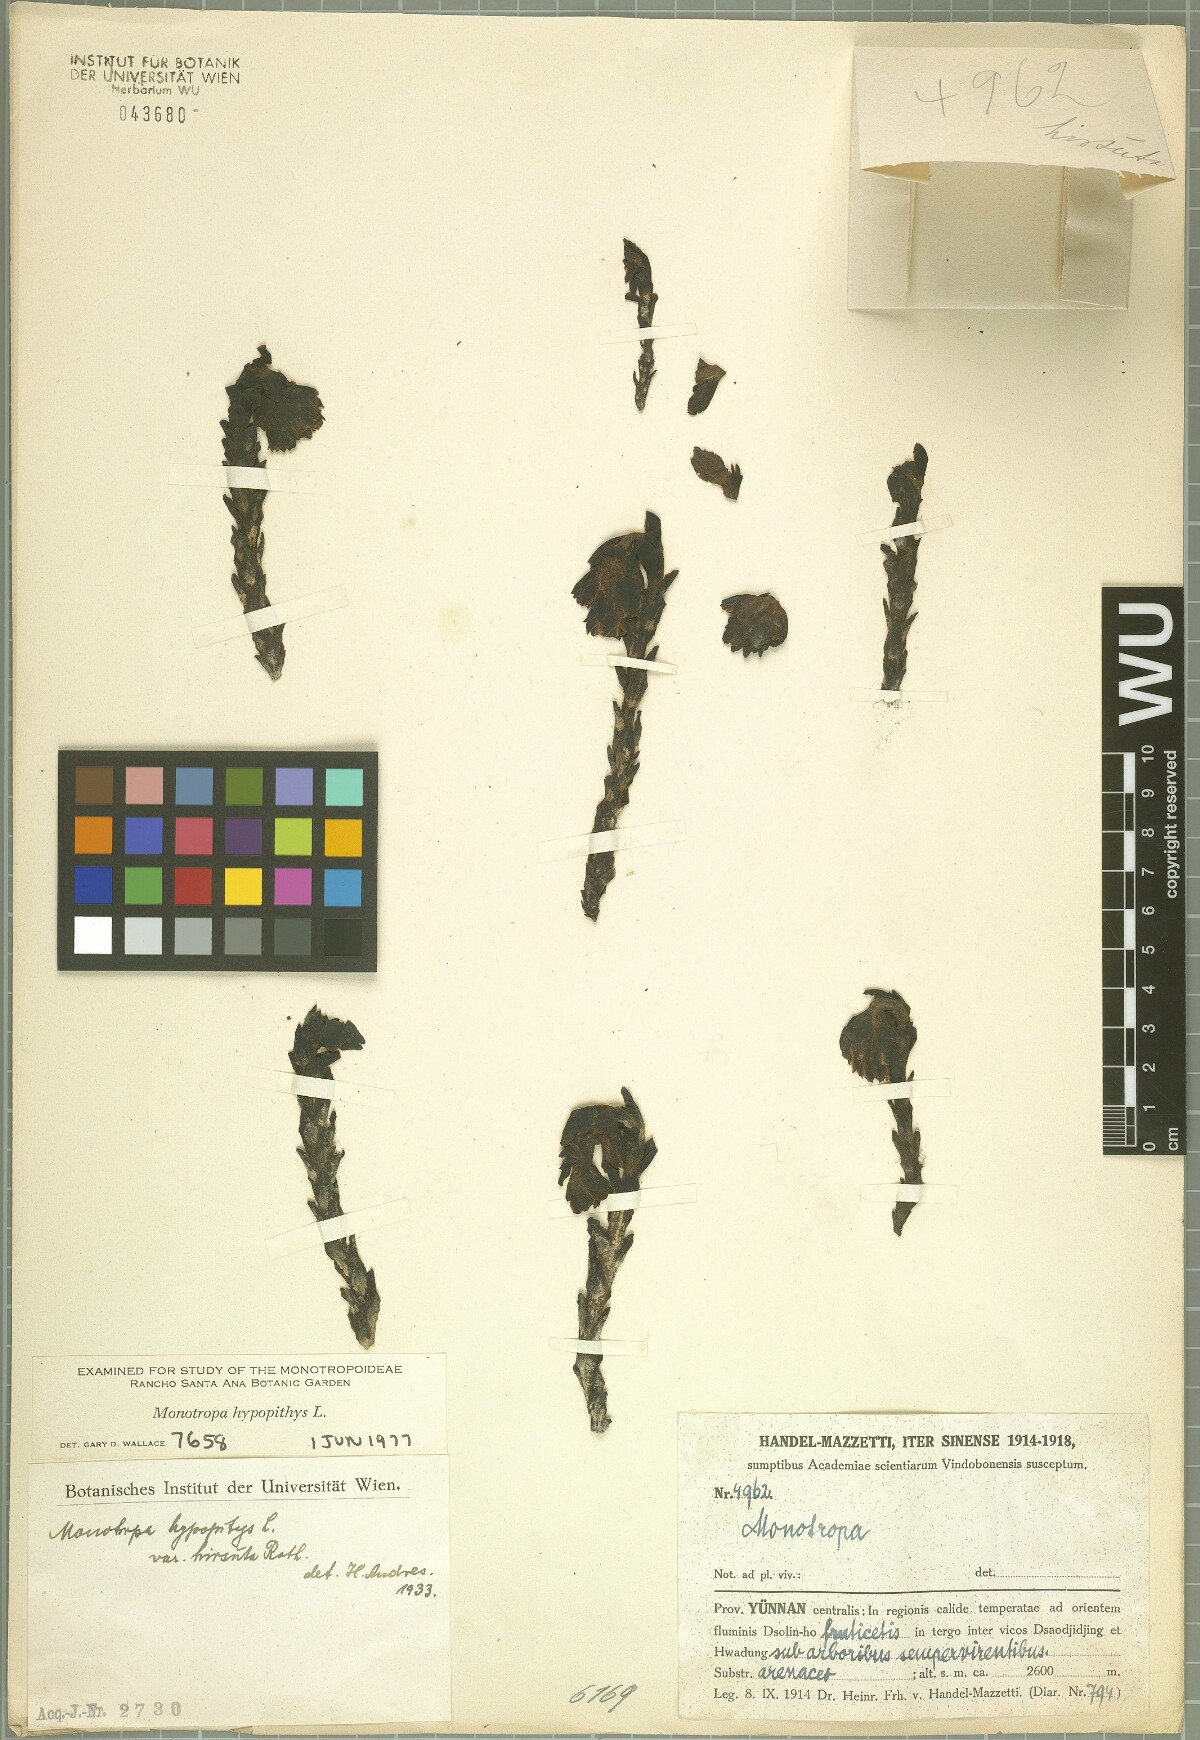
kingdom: Plantae
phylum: Tracheophyta
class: Magnoliopsida
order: Ericales
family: Ericaceae
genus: Hypopitys
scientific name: Hypopitys monotropa
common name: Yellow bird's-nest
